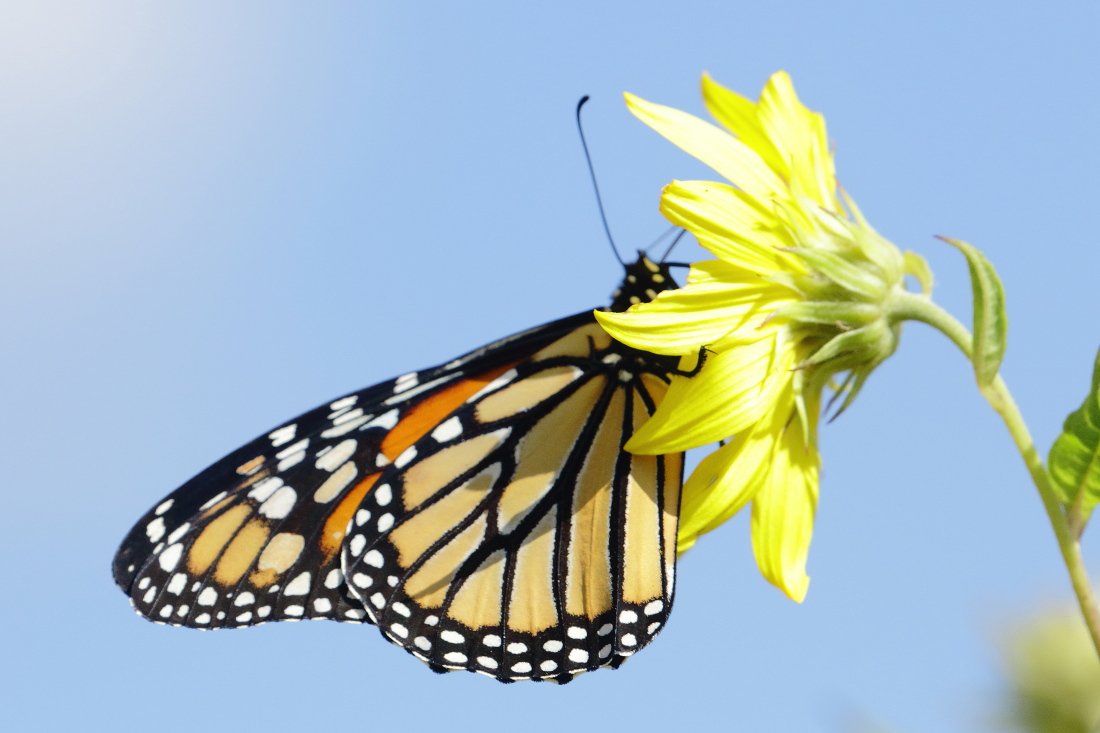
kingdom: Animalia
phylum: Arthropoda
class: Insecta
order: Lepidoptera
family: Nymphalidae
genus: Danaus
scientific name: Danaus plexippus
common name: Monarch
